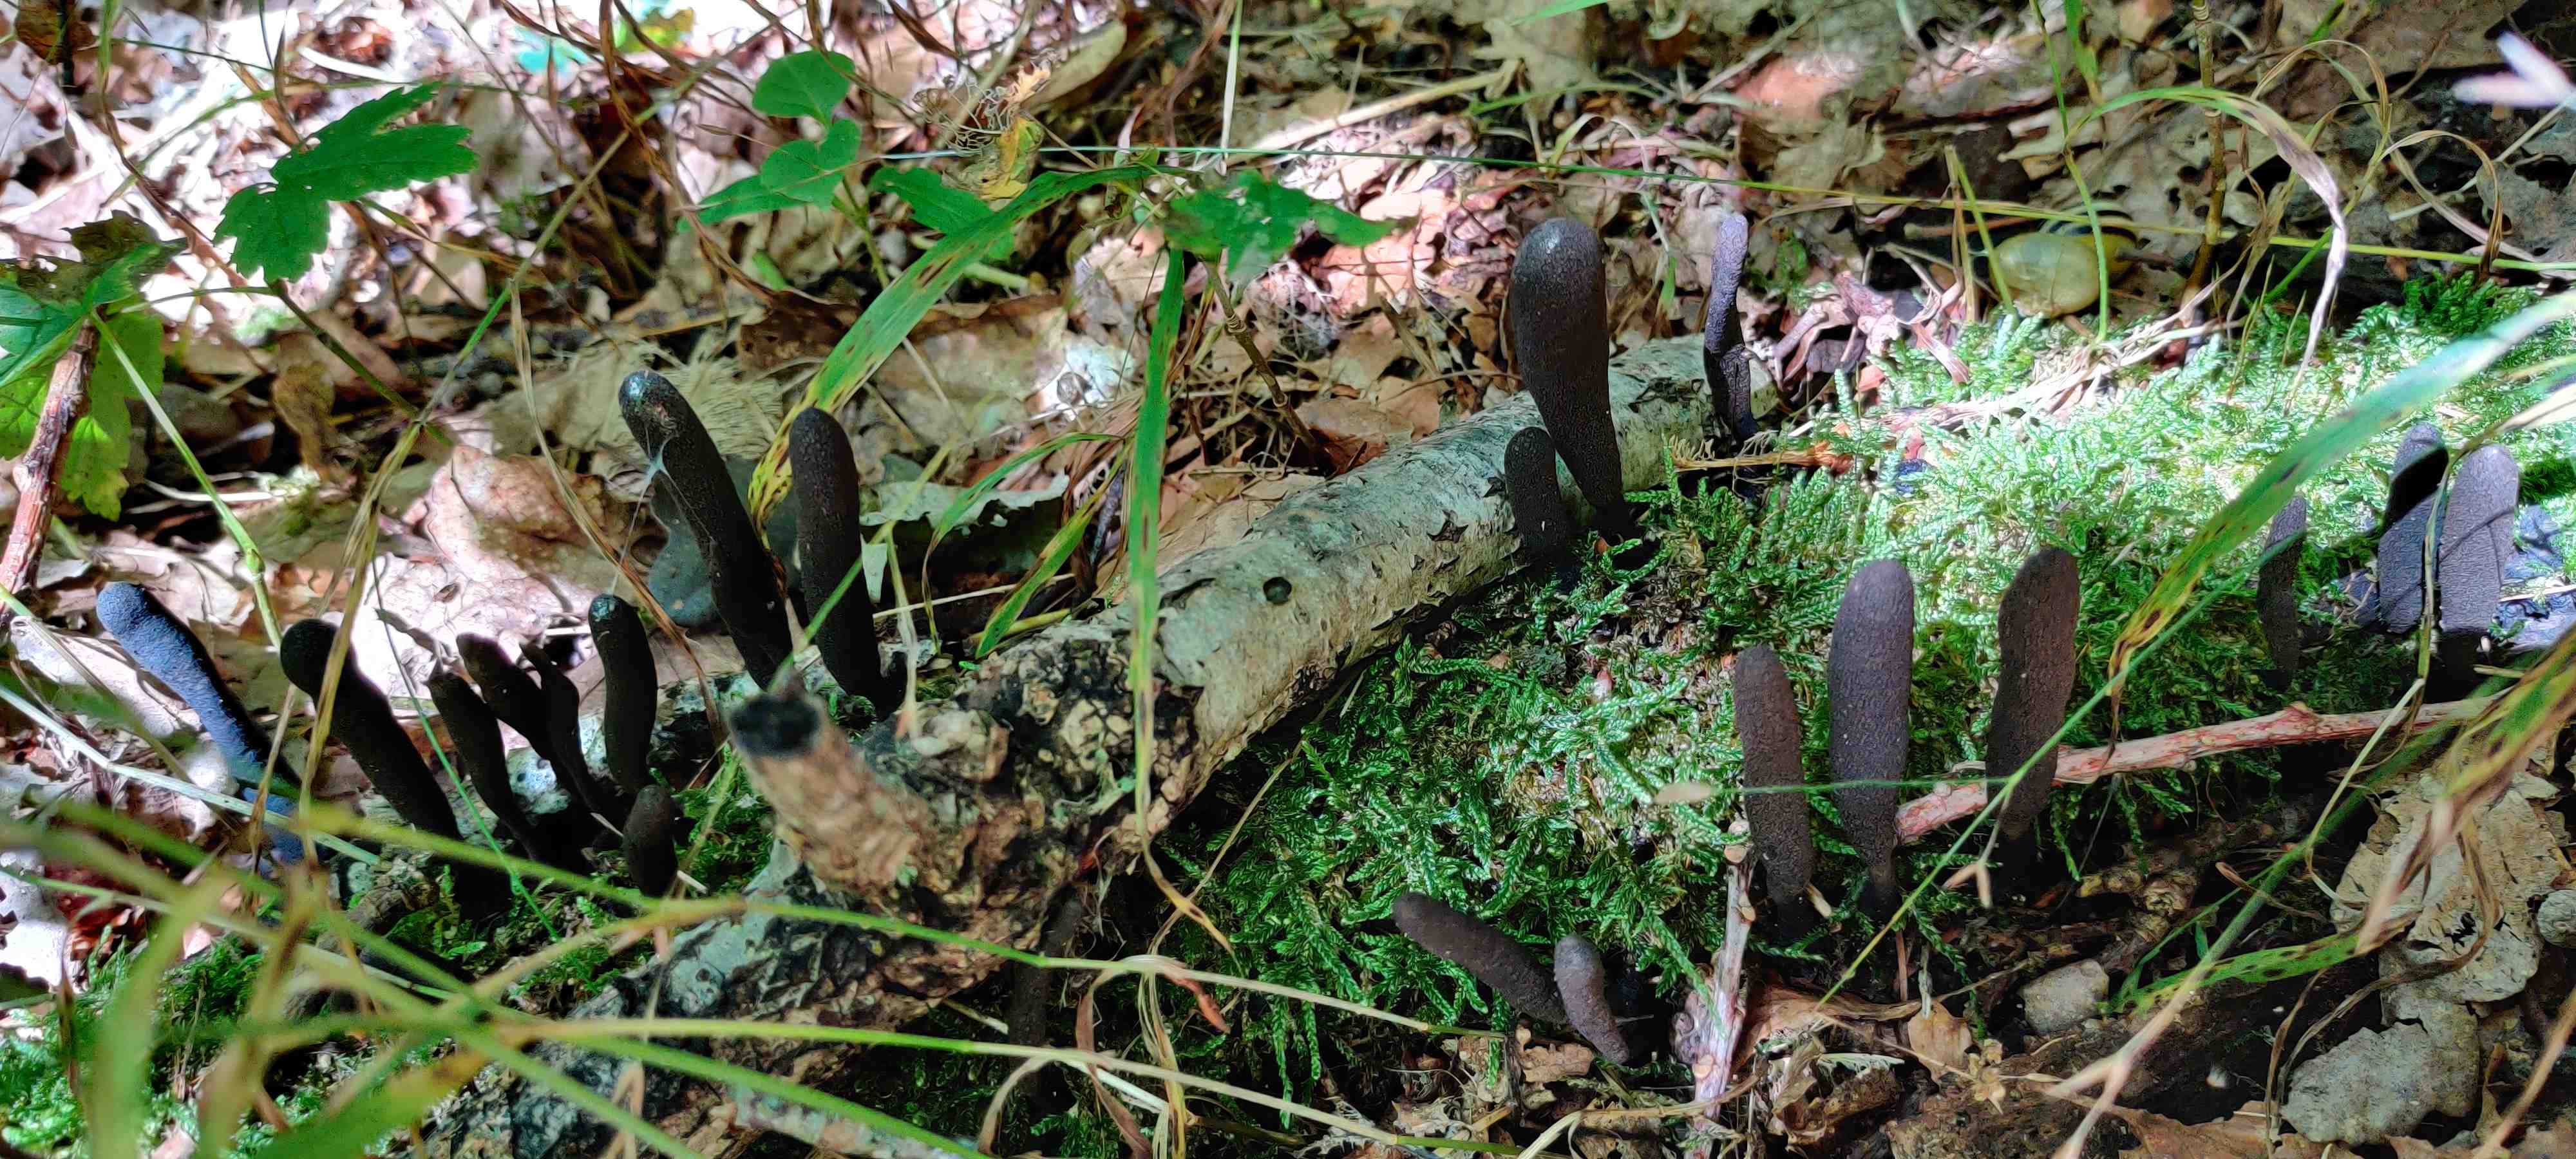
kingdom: Fungi
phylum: Ascomycota
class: Sordariomycetes
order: Xylariales
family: Xylariaceae
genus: Xylaria
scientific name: Xylaria longipes
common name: slank stødsvamp
